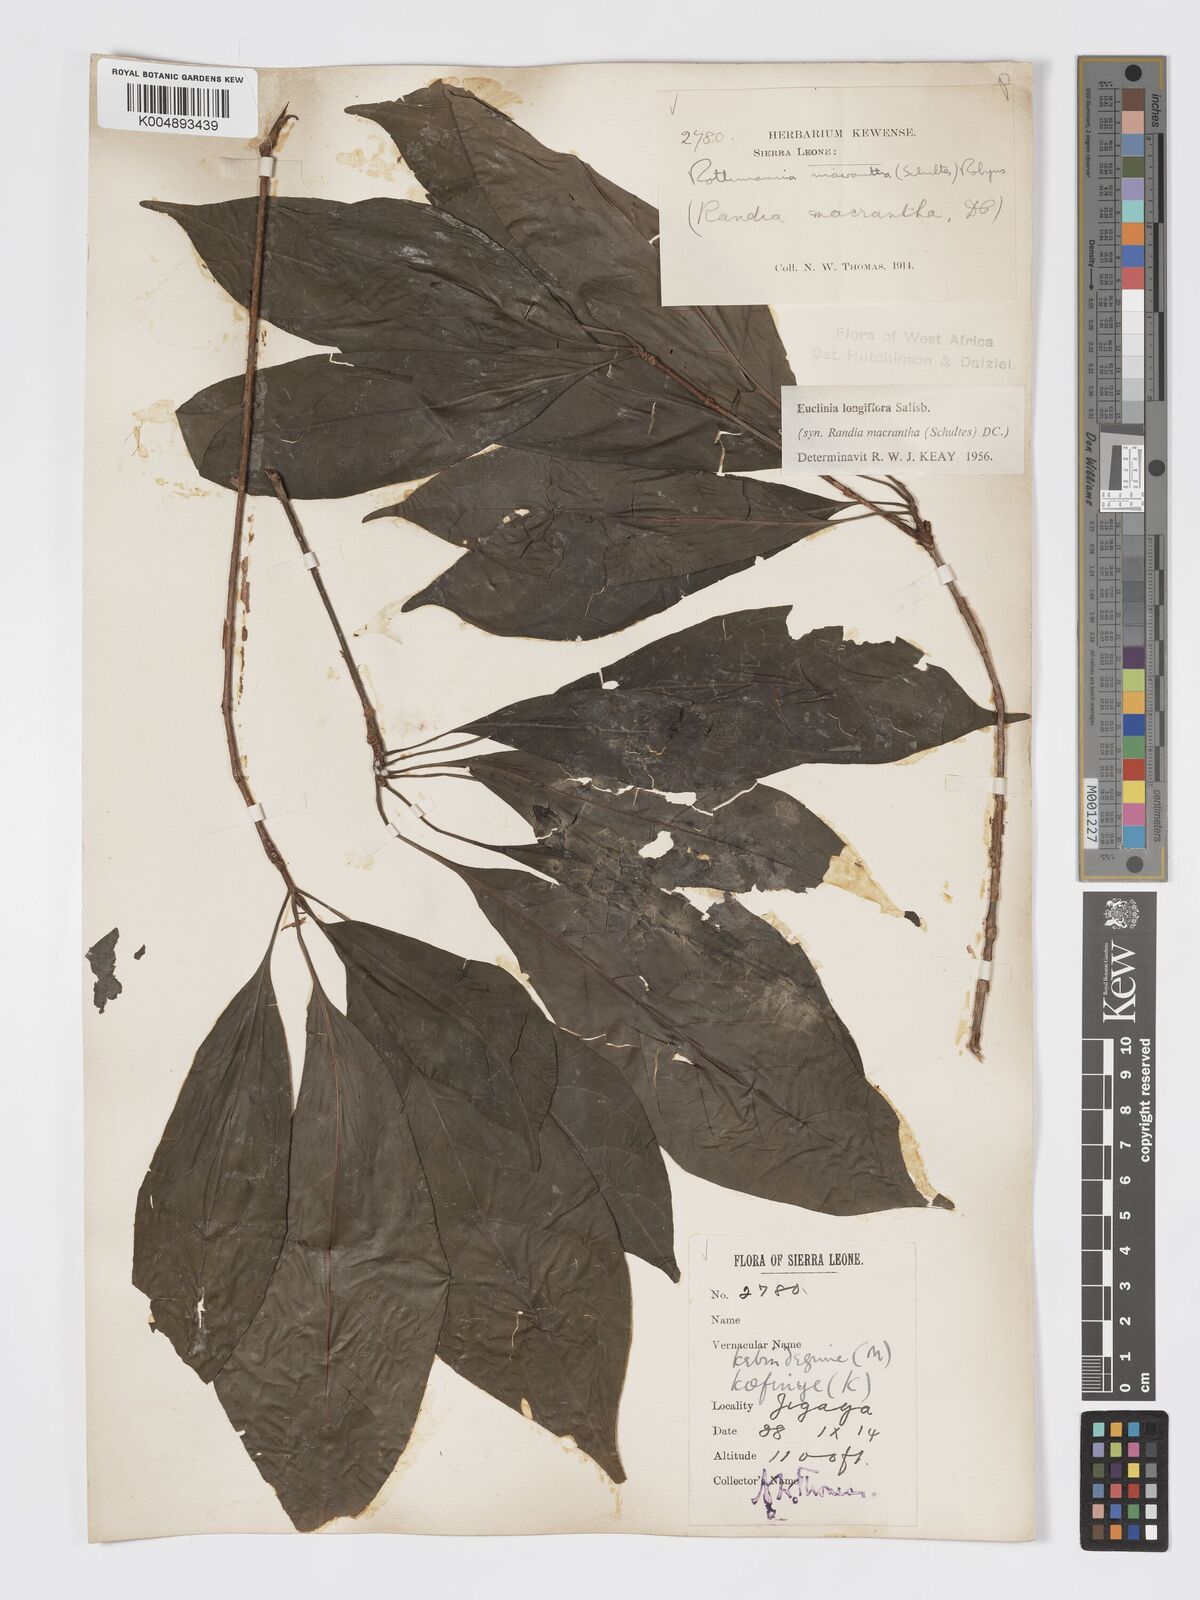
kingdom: Plantae
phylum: Tracheophyta
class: Magnoliopsida
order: Gentianales
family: Rubiaceae
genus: Euclinia
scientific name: Euclinia longiflora
